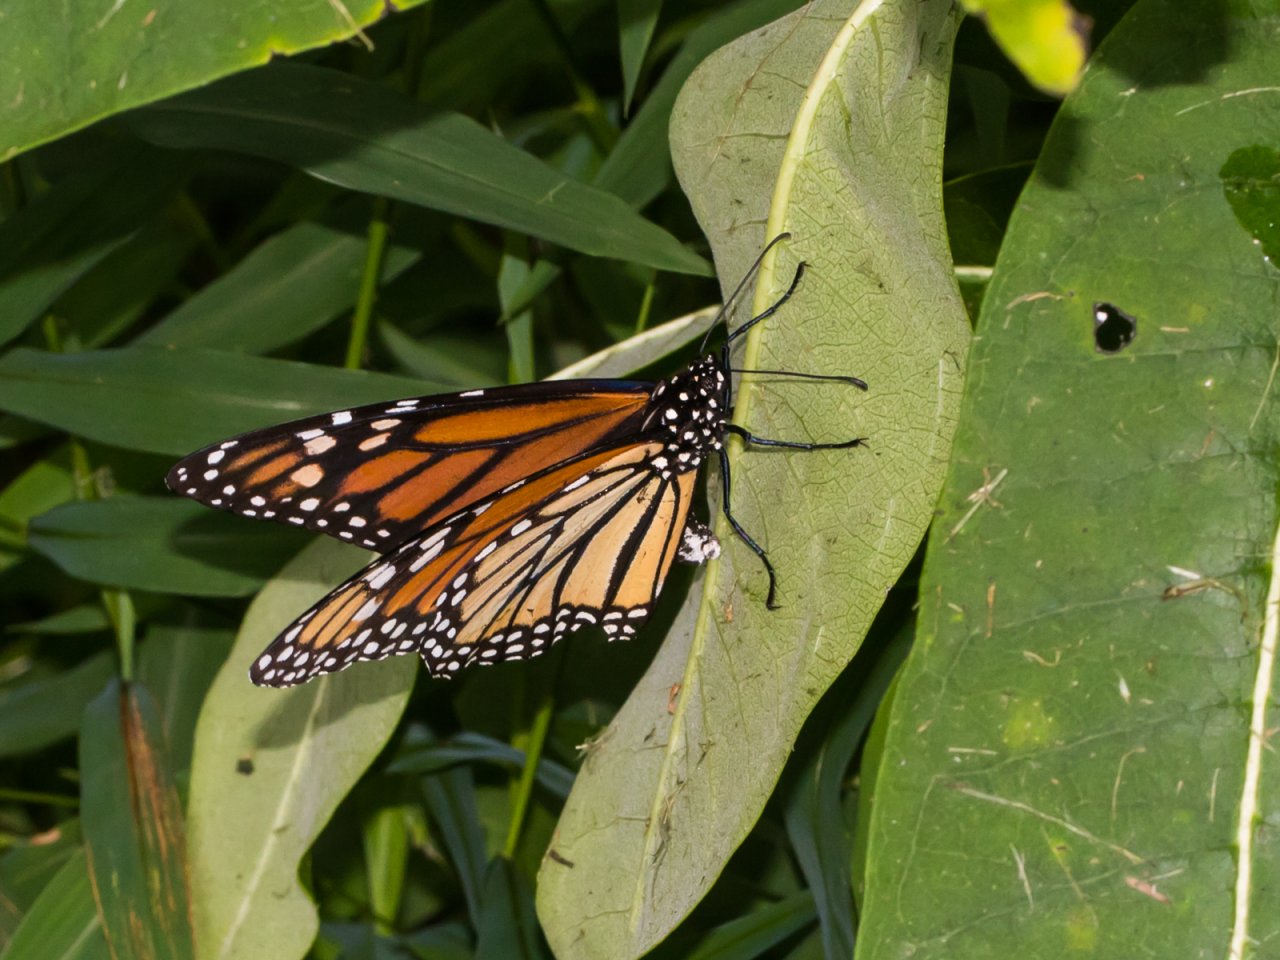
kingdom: Animalia
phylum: Arthropoda
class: Insecta
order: Lepidoptera
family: Nymphalidae
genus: Danaus
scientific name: Danaus plexippus
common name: Monarch
